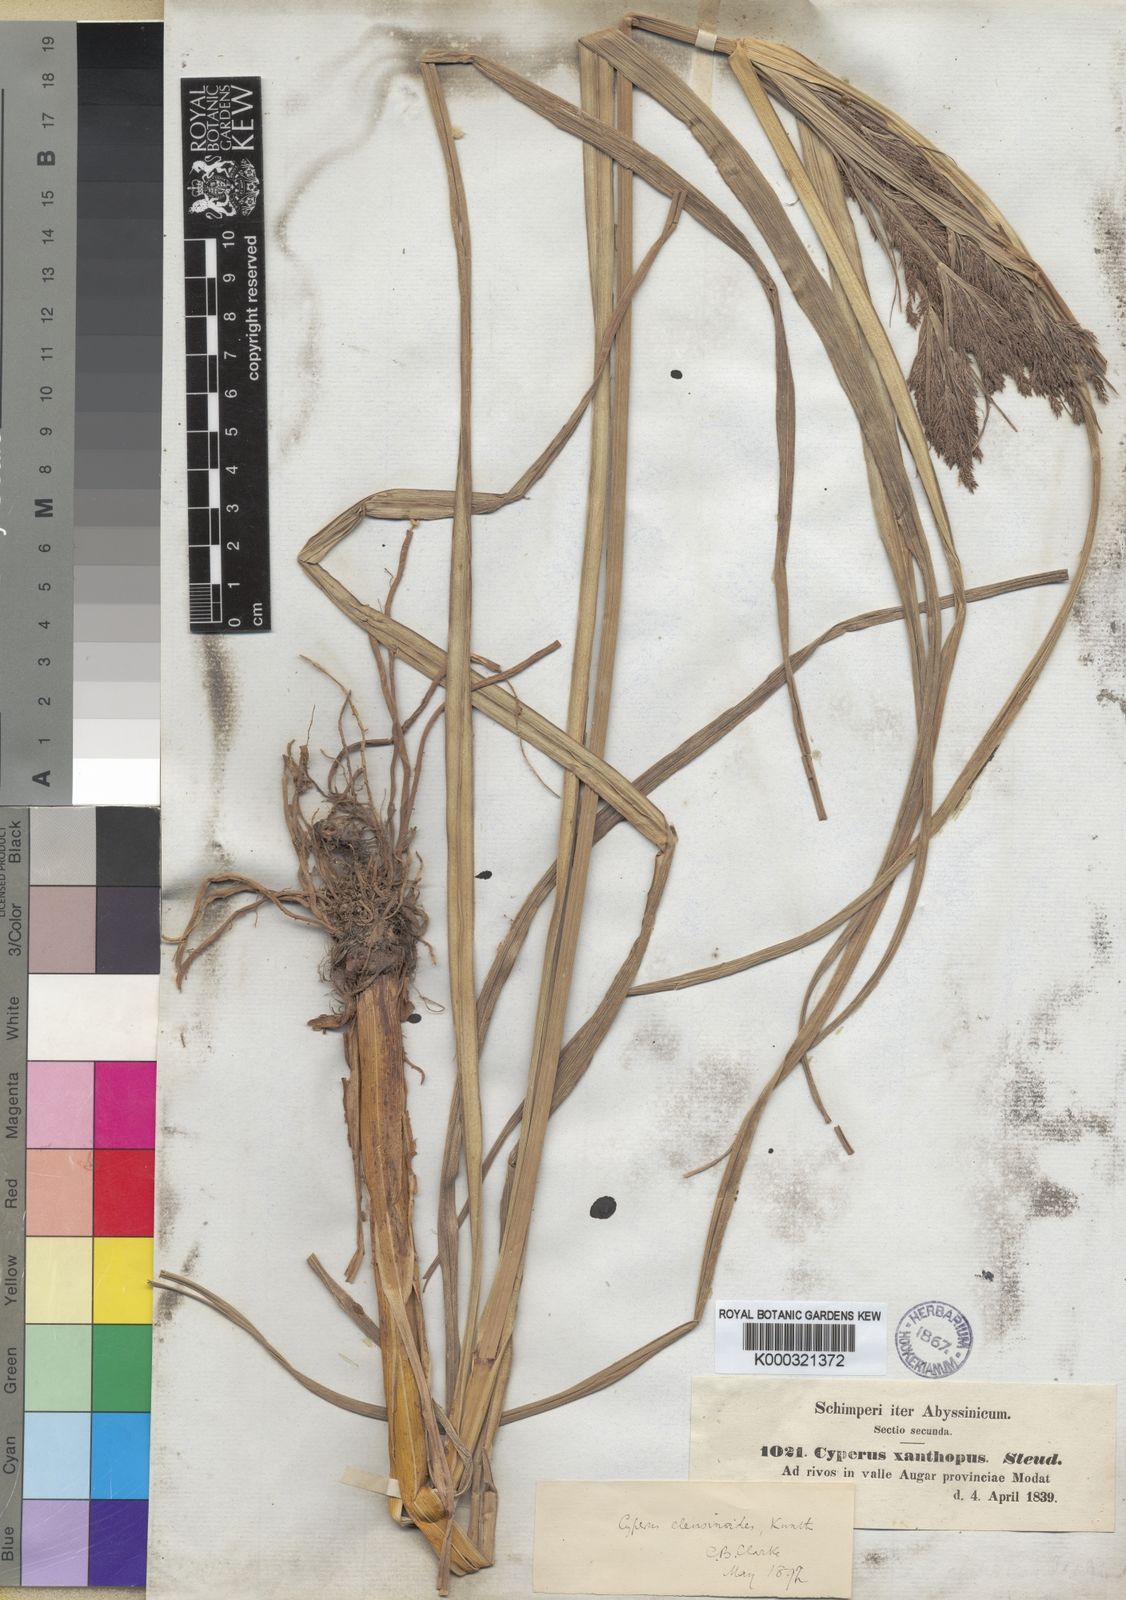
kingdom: Plantae
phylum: Tracheophyta
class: Liliopsida
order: Poales
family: Cyperaceae
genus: Cyperus
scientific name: Cyperus nutans
